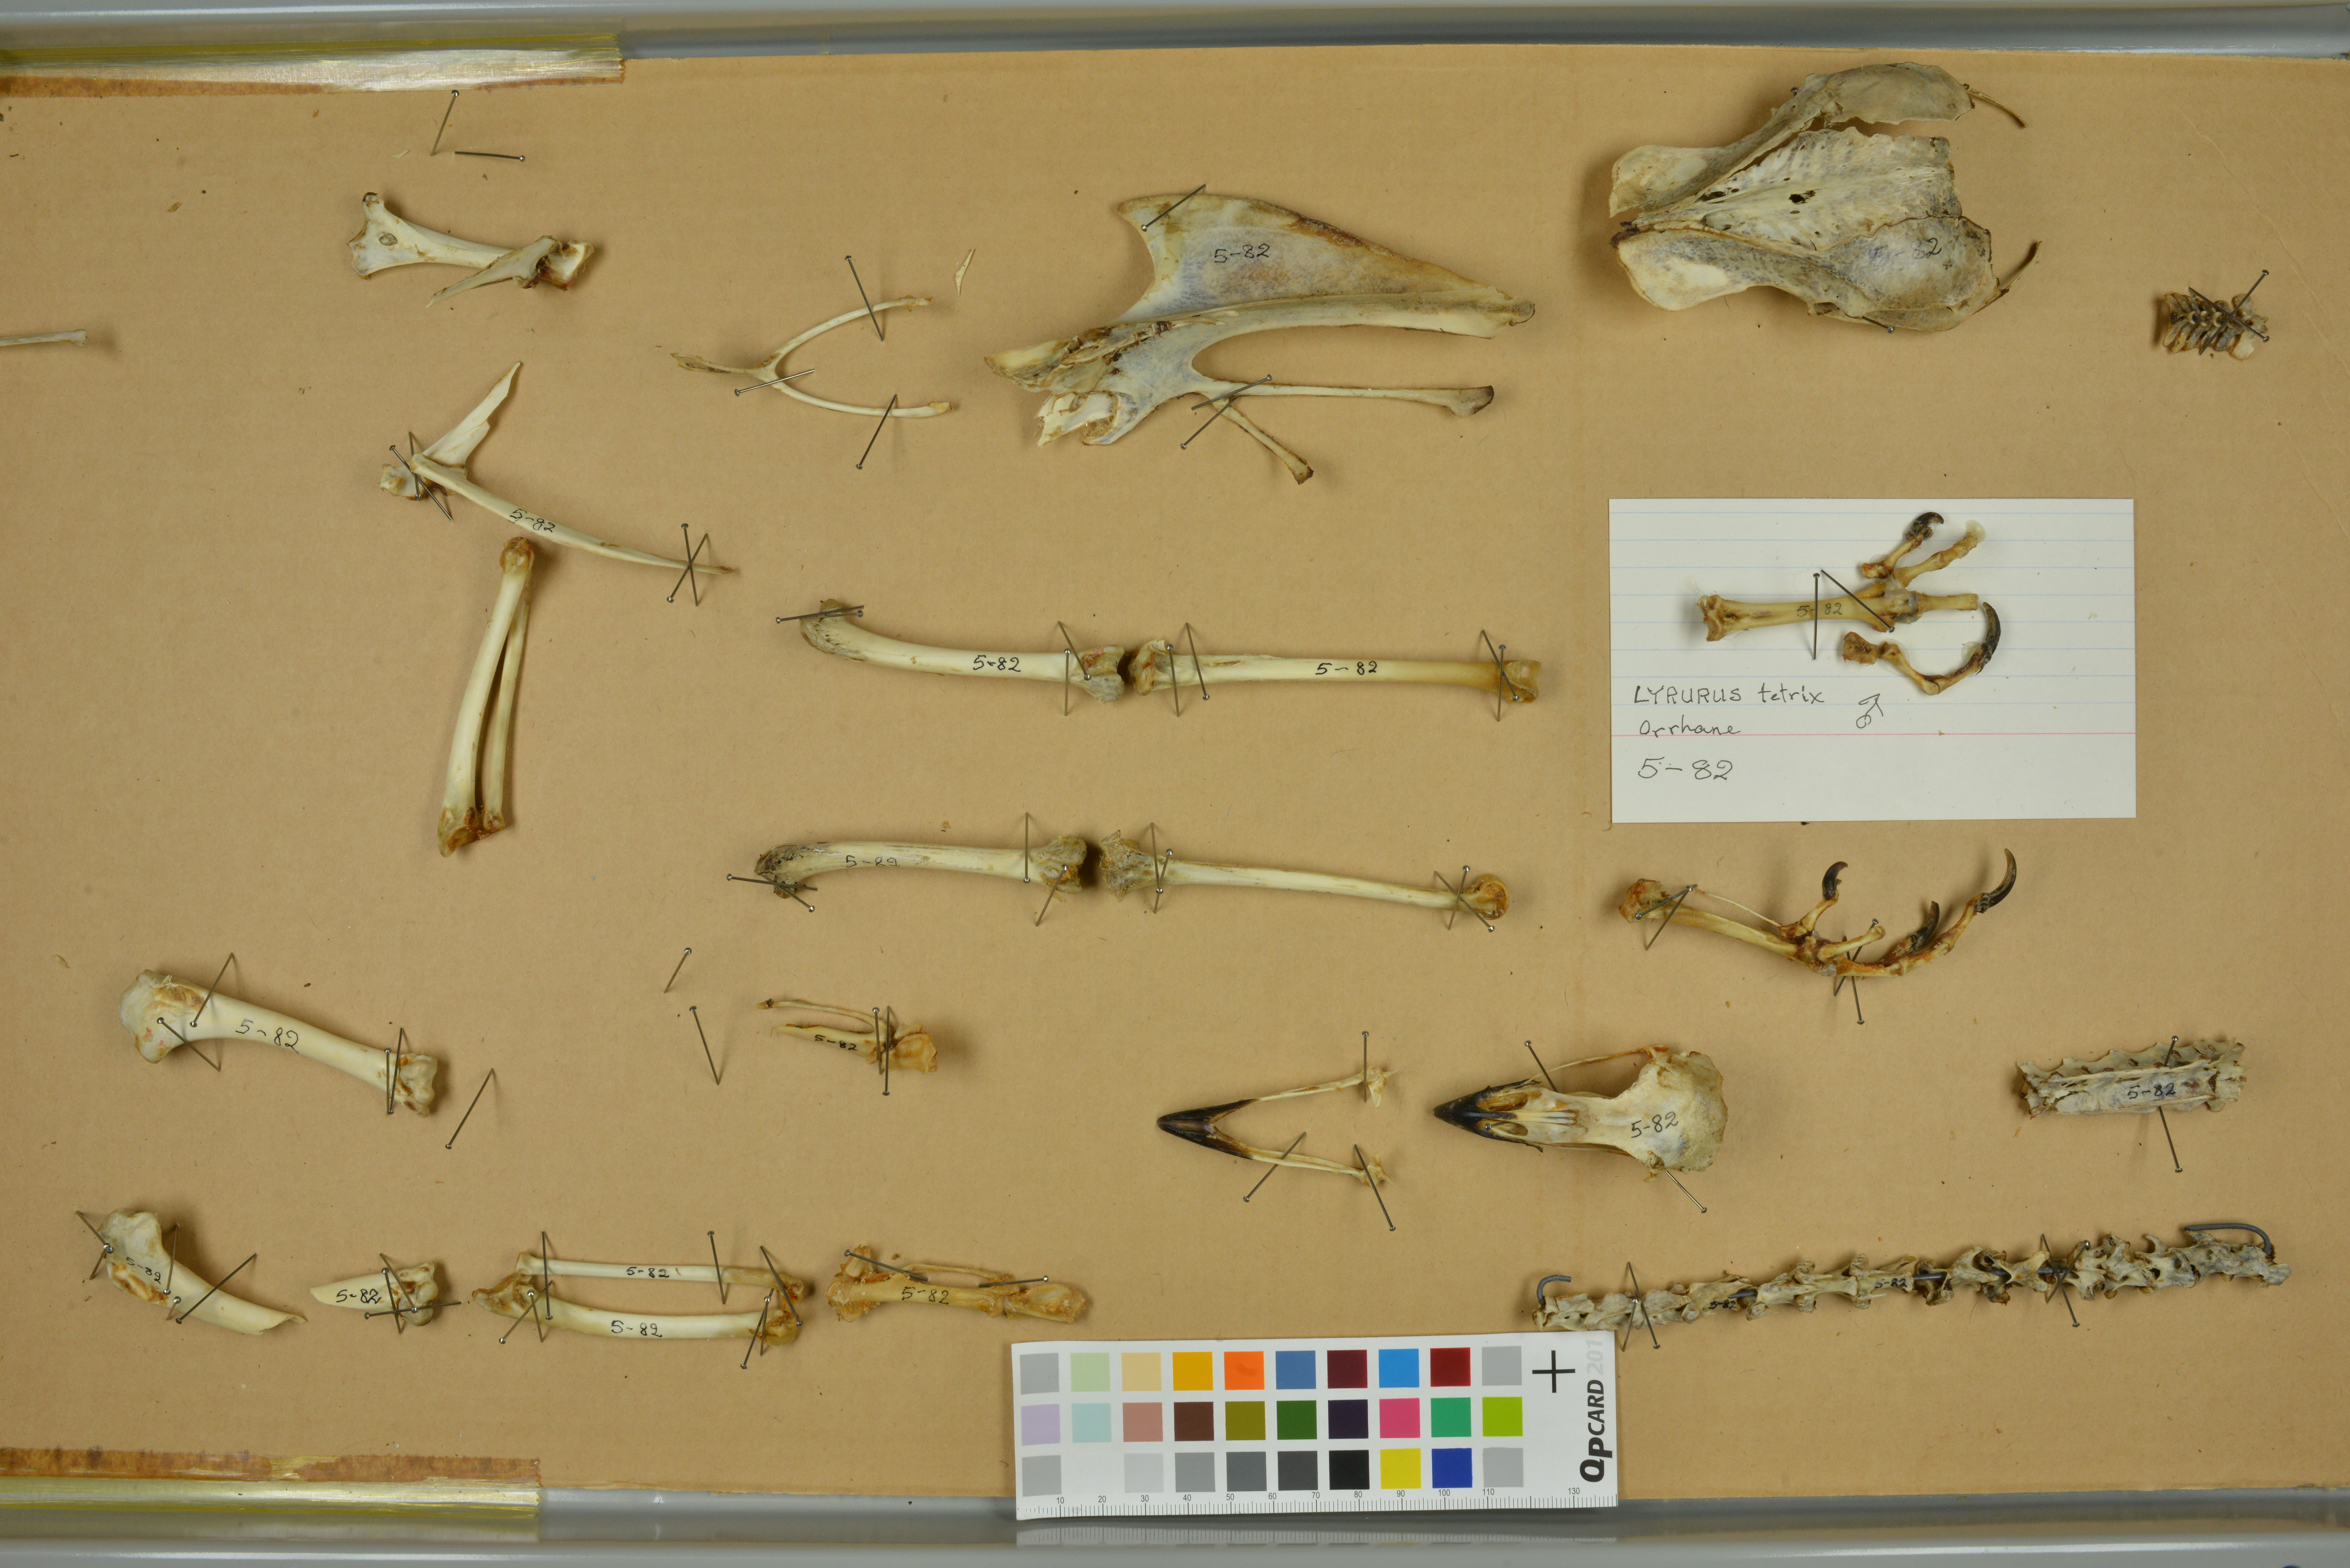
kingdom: Animalia
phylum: Chordata
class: Aves
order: Galliformes
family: Phasianidae
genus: Lyrurus
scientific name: Lyrurus tetrix
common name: Black grouse
